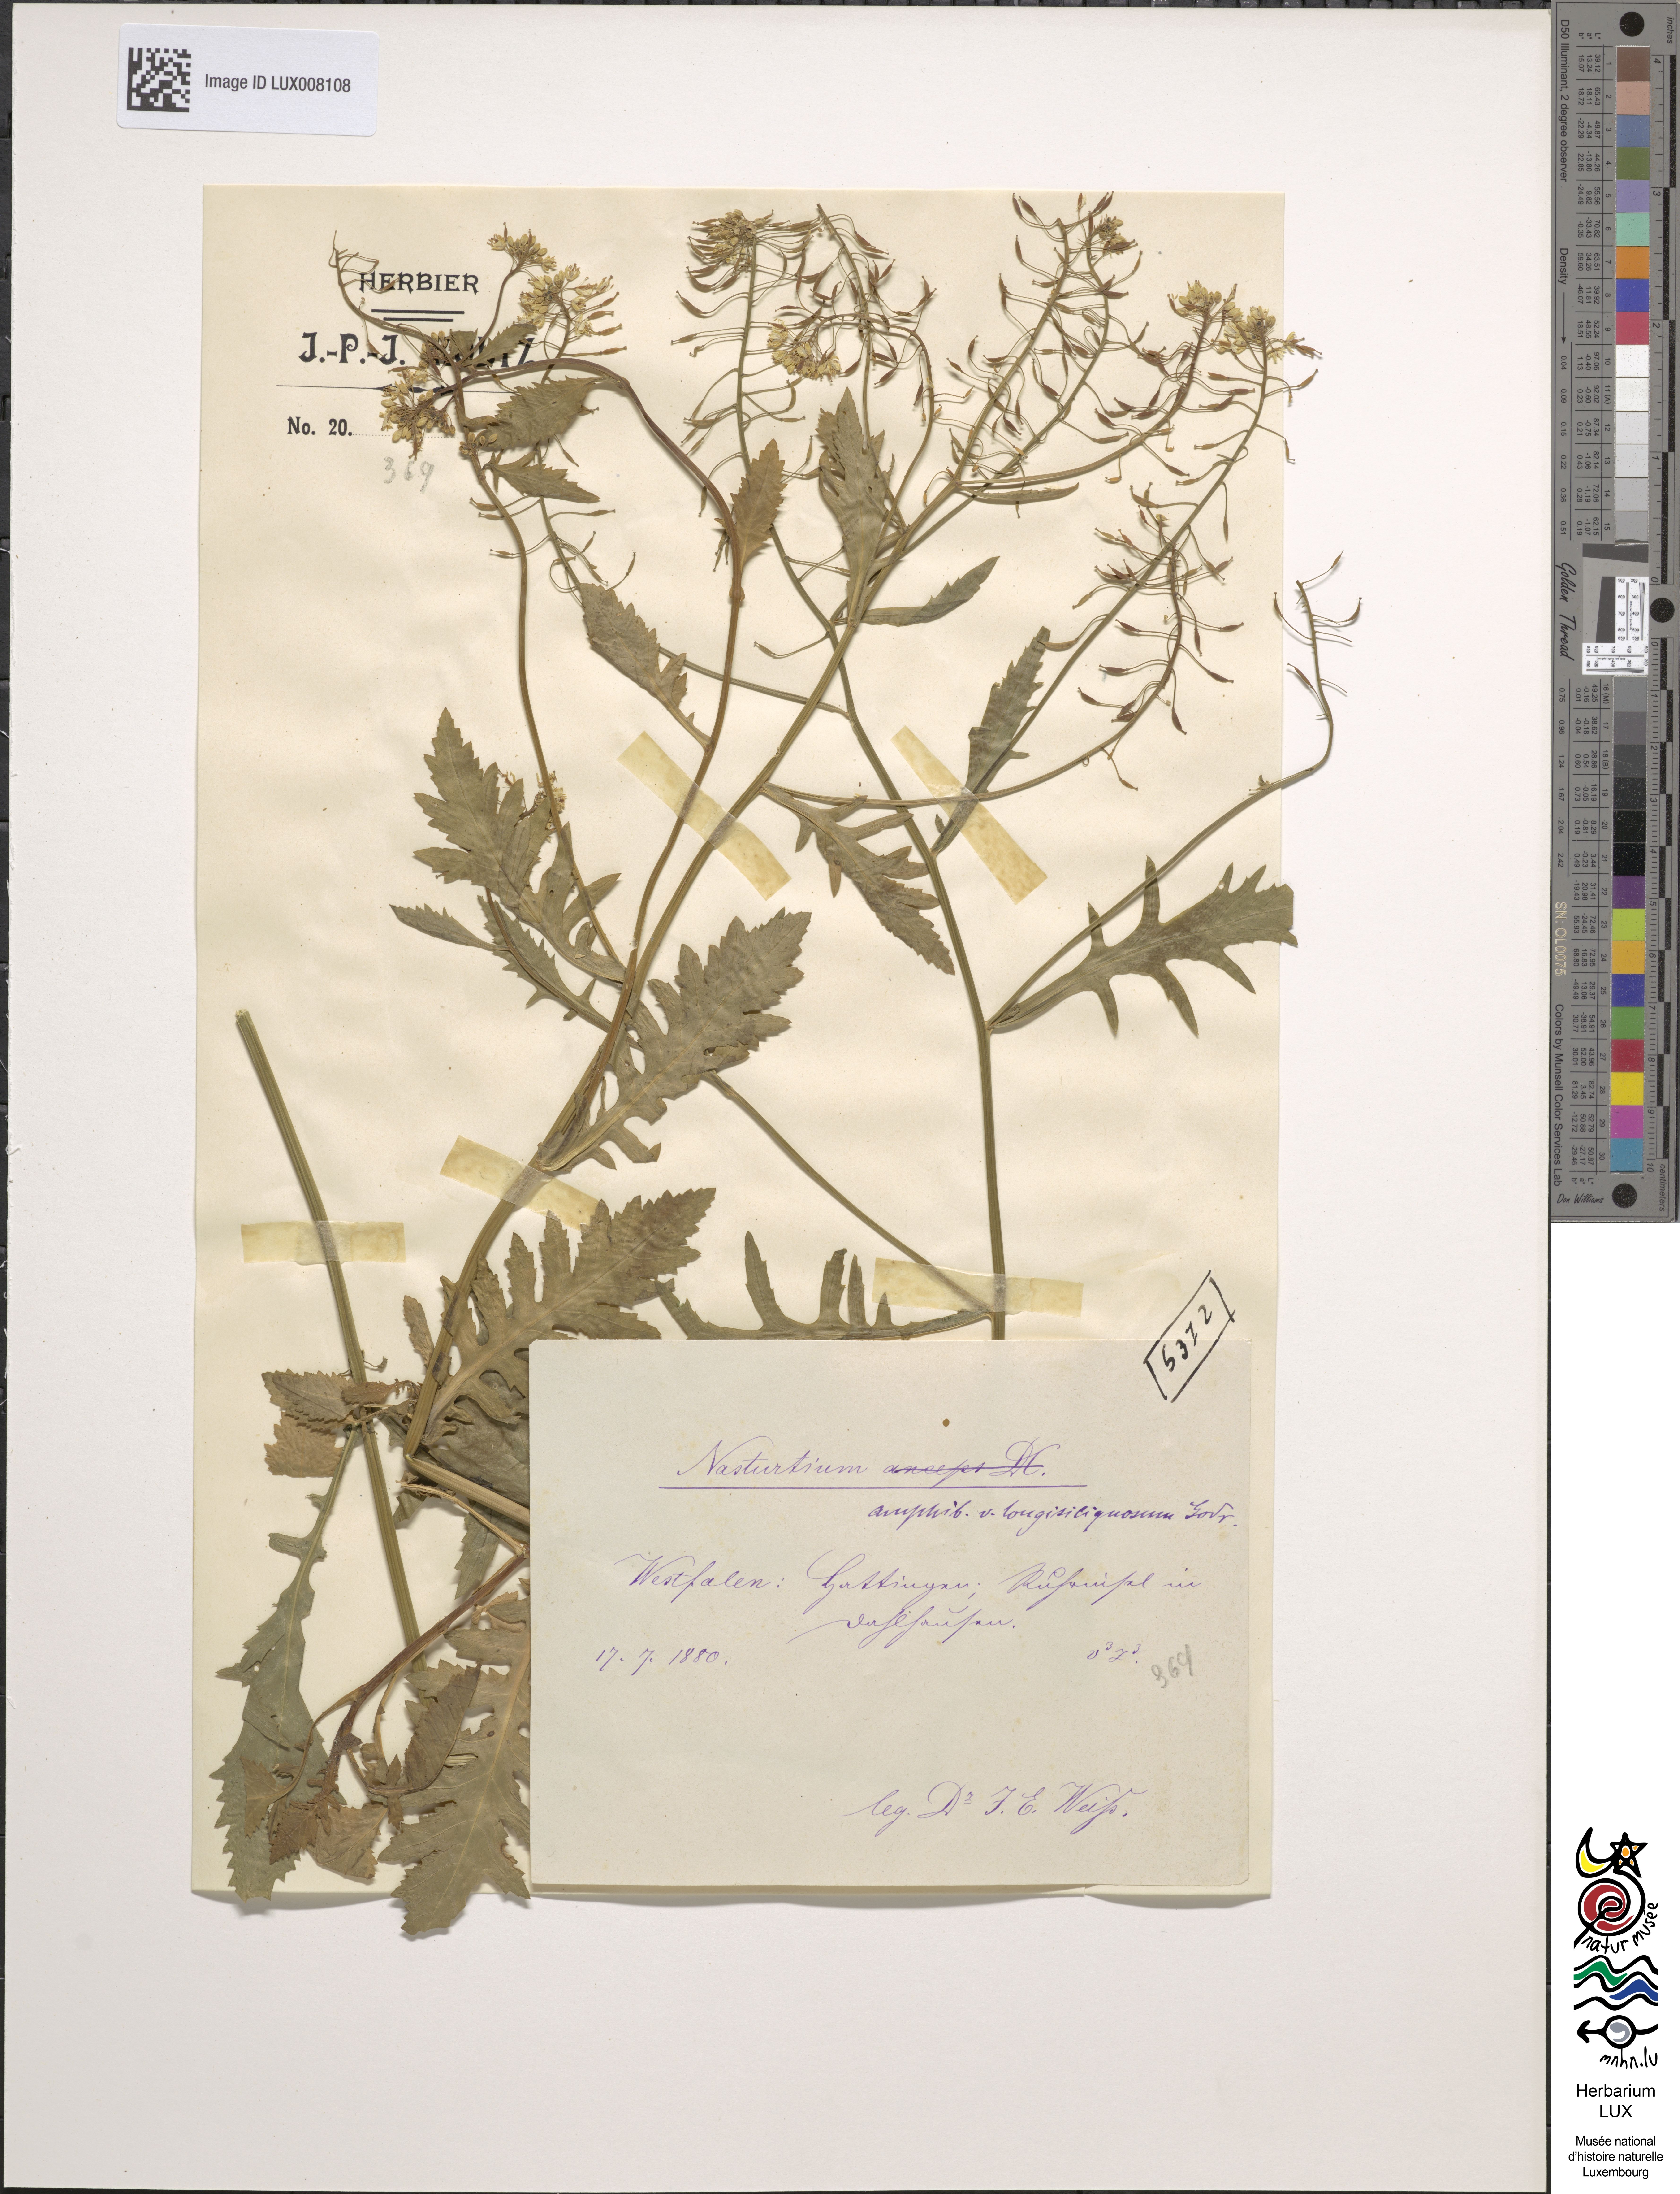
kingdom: Plantae
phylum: Tracheophyta
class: Magnoliopsida
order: Brassicales
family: Brassicaceae
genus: Rorippa
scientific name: Rorippa amphibia
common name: Great yellow-cress
